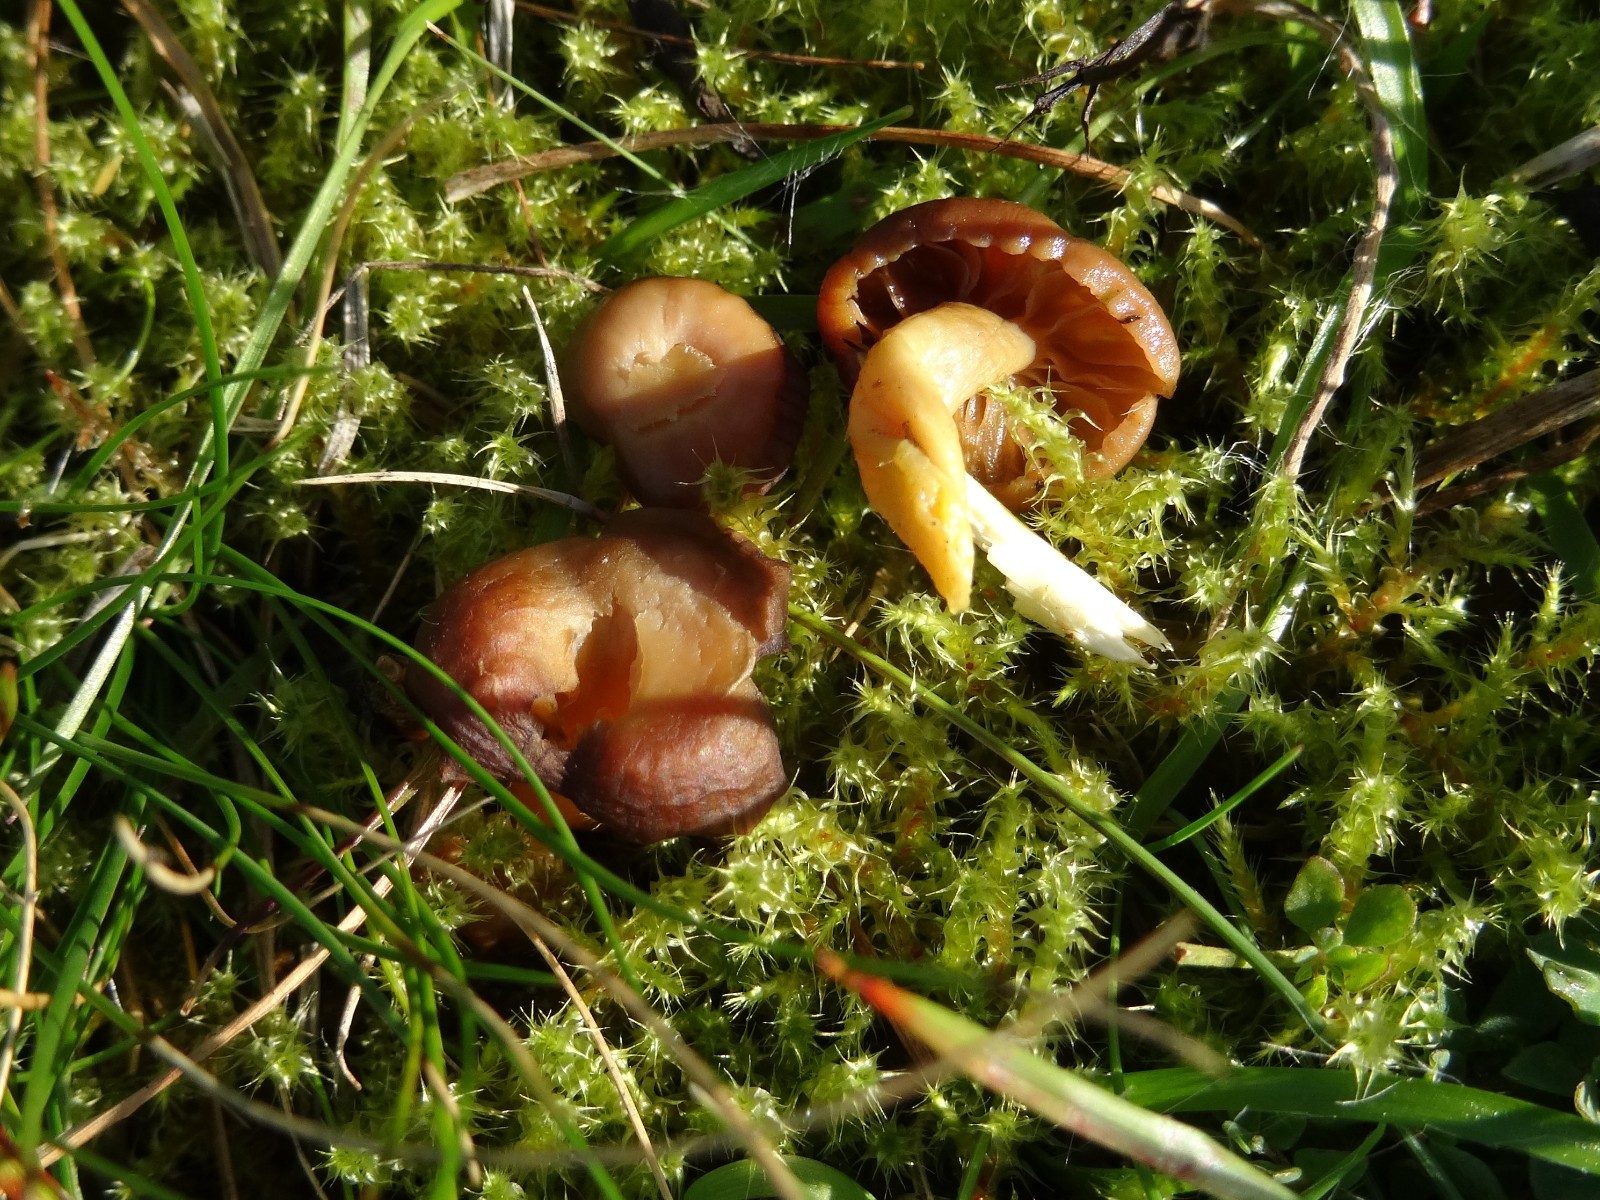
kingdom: Fungi
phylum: Basidiomycota
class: Agaricomycetes
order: Agaricales
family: Clavariaceae
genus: Camarophyllopsis
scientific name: Camarophyllopsis schulzeri
